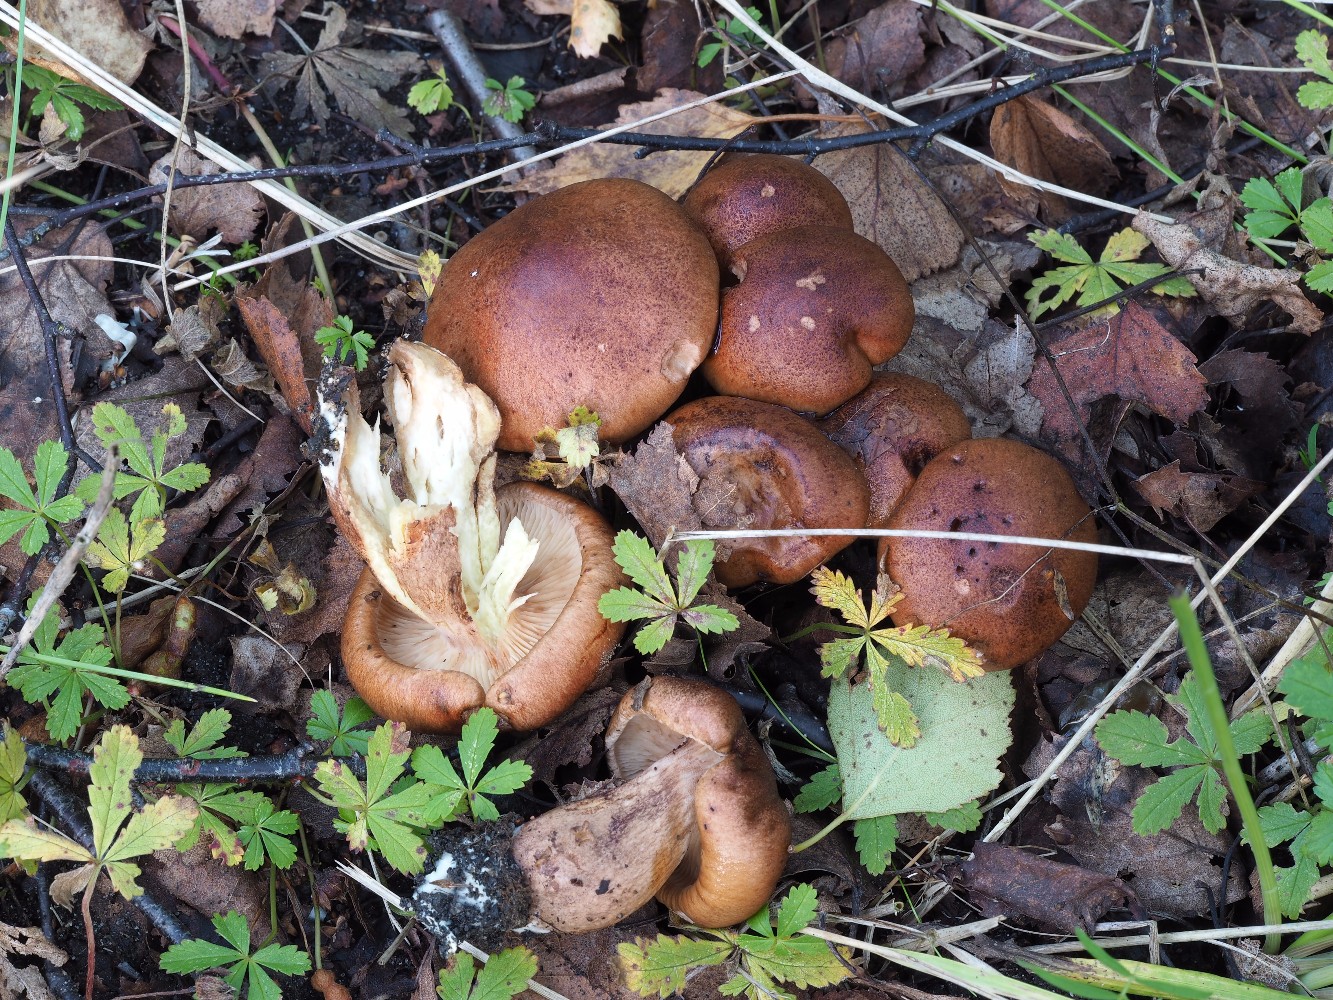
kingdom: Fungi
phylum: Basidiomycota
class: Agaricomycetes
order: Agaricales
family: Tricholomataceae
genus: Tricholoma
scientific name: Tricholoma fulvum
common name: birke-ridderhat
